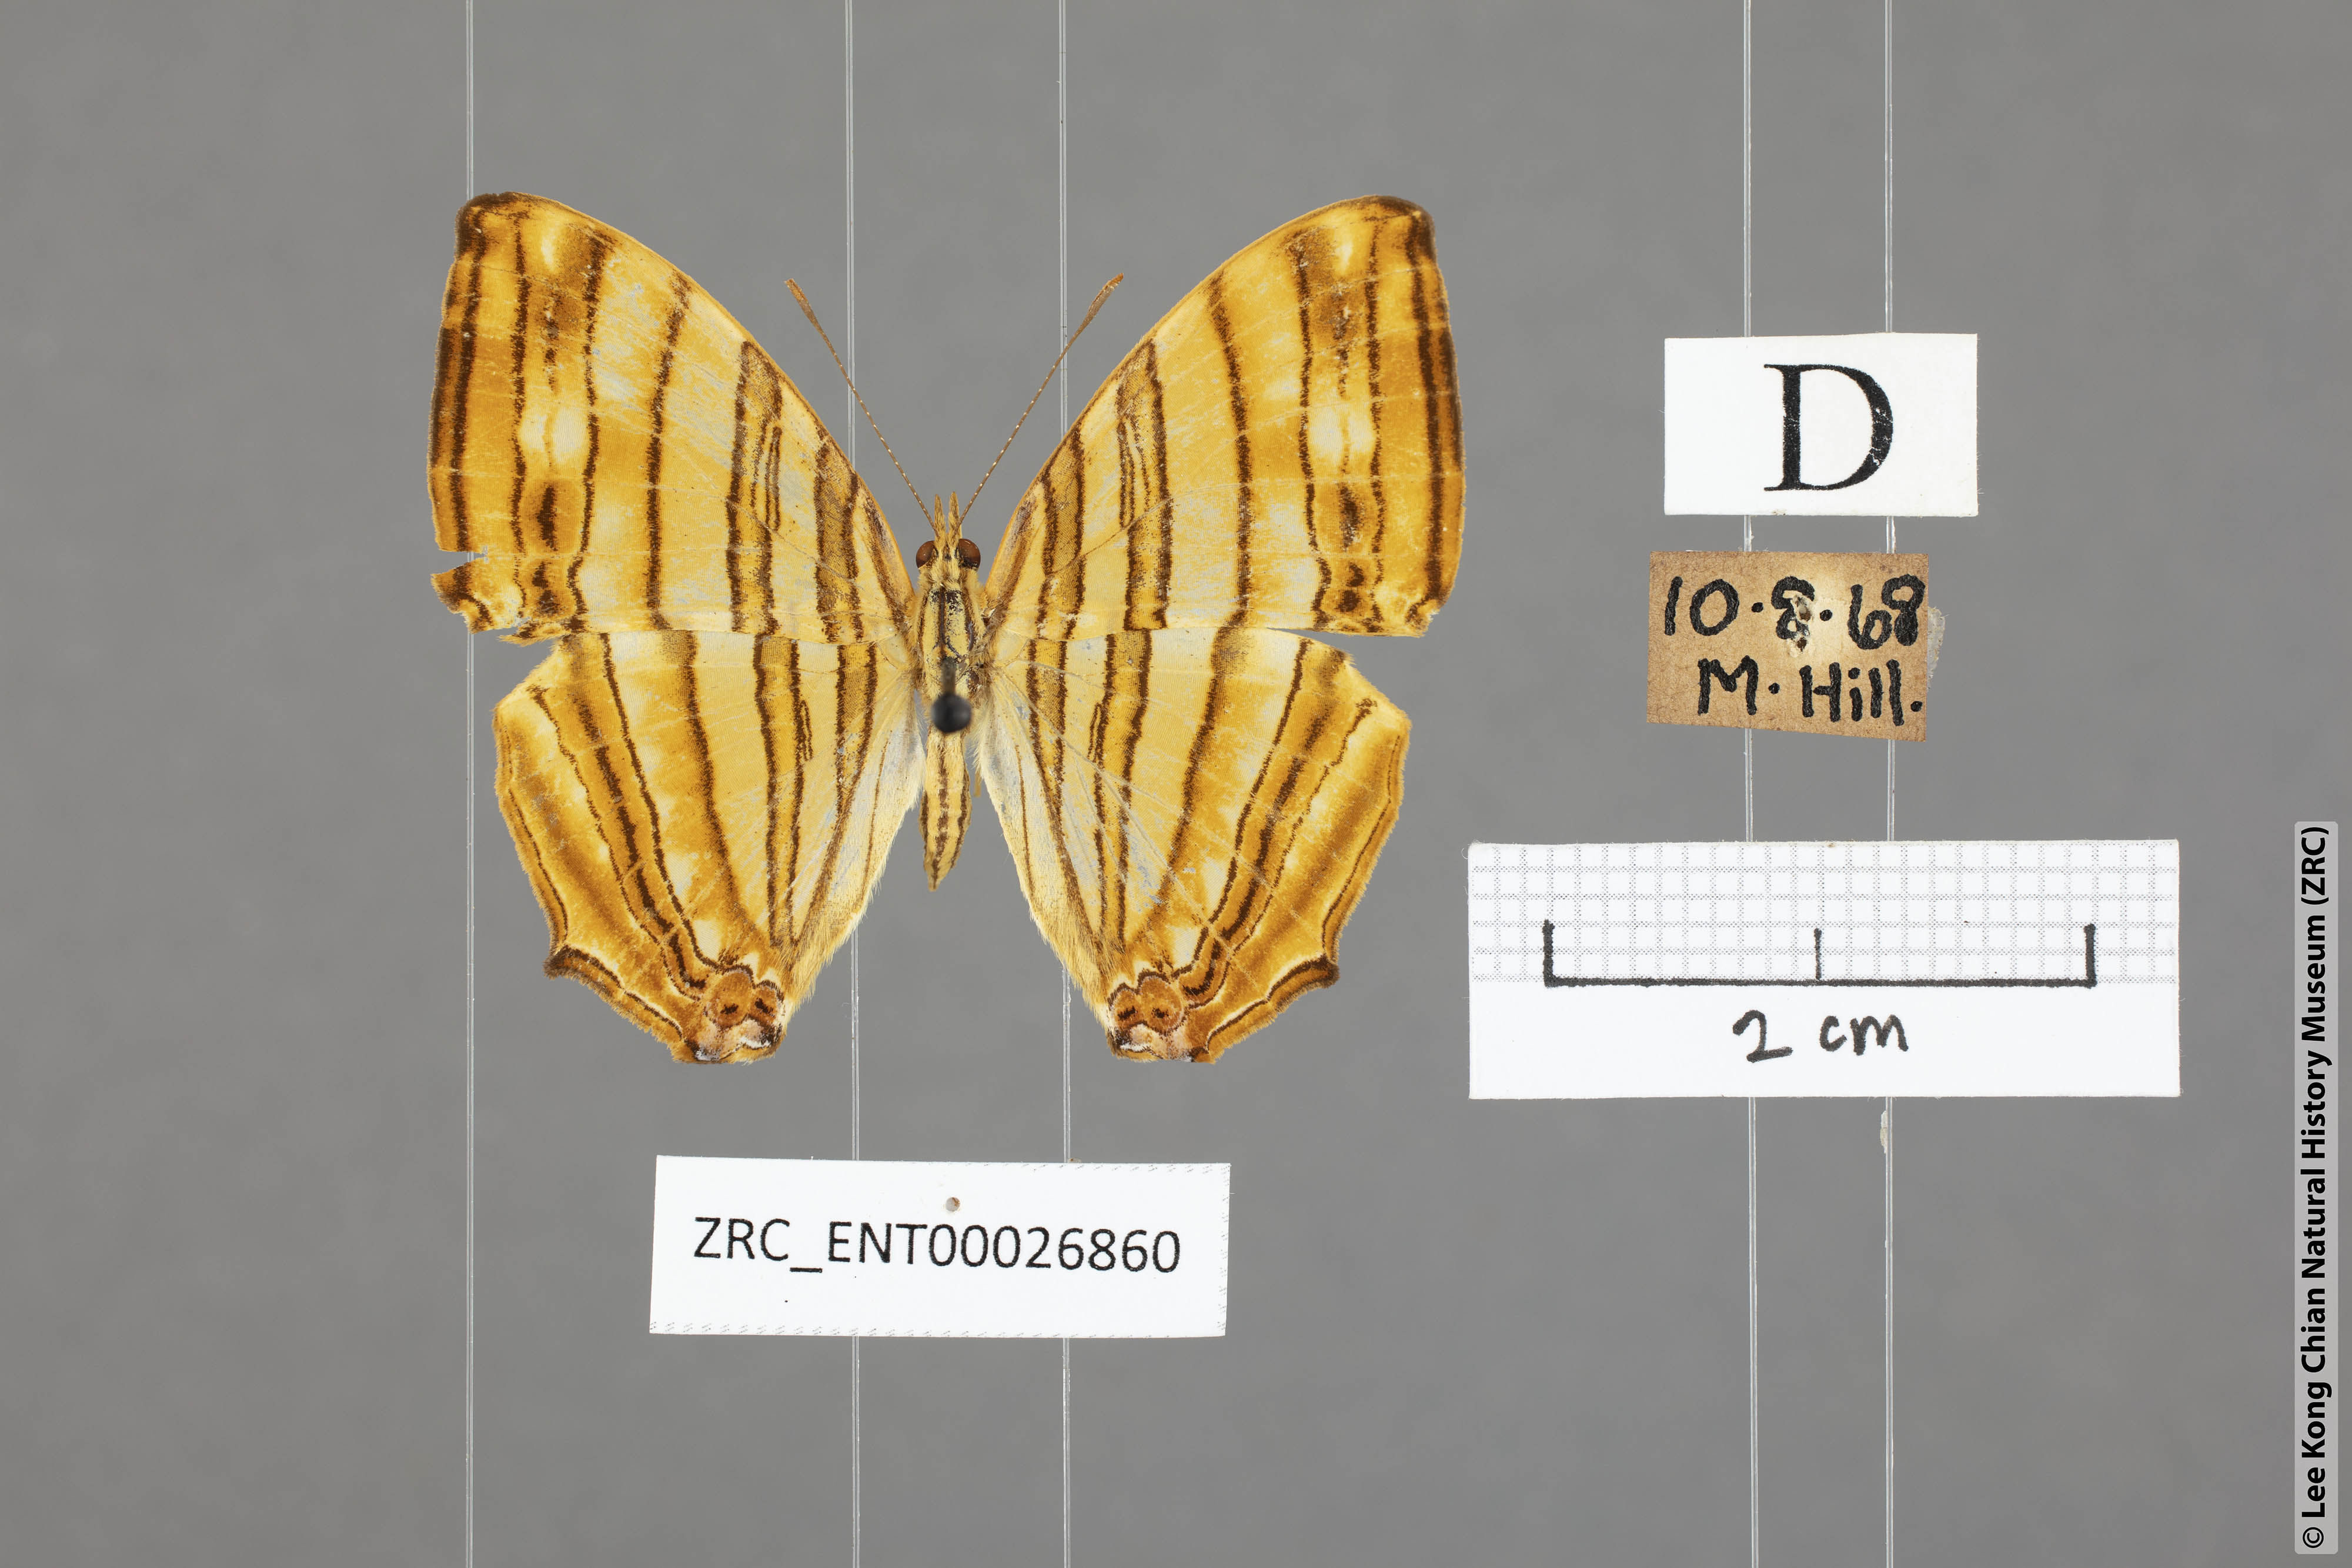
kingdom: Animalia
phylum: Arthropoda
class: Insecta
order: Lepidoptera
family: Nymphalidae
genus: Chersonesia
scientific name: Chersonesia risa
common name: Common maplet
